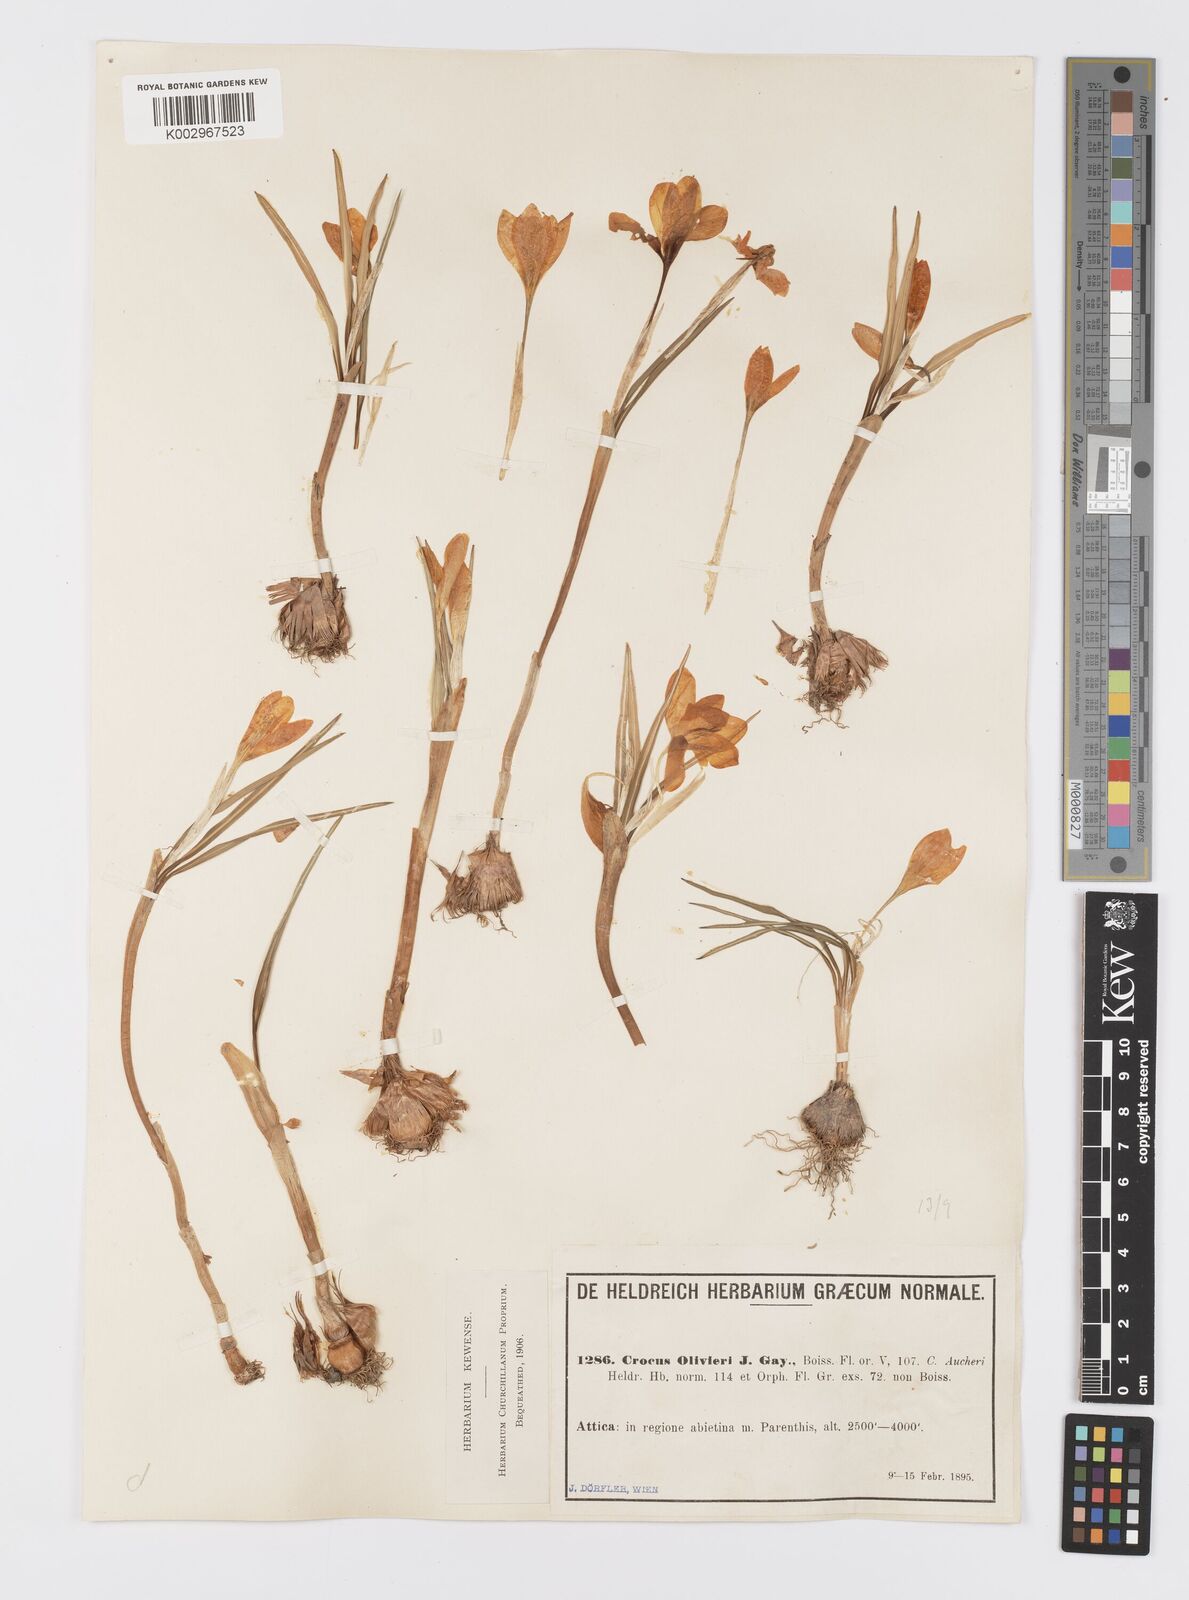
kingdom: Plantae
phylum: Tracheophyta
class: Liliopsida
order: Asparagales
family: Iridaceae
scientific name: Iridaceae
